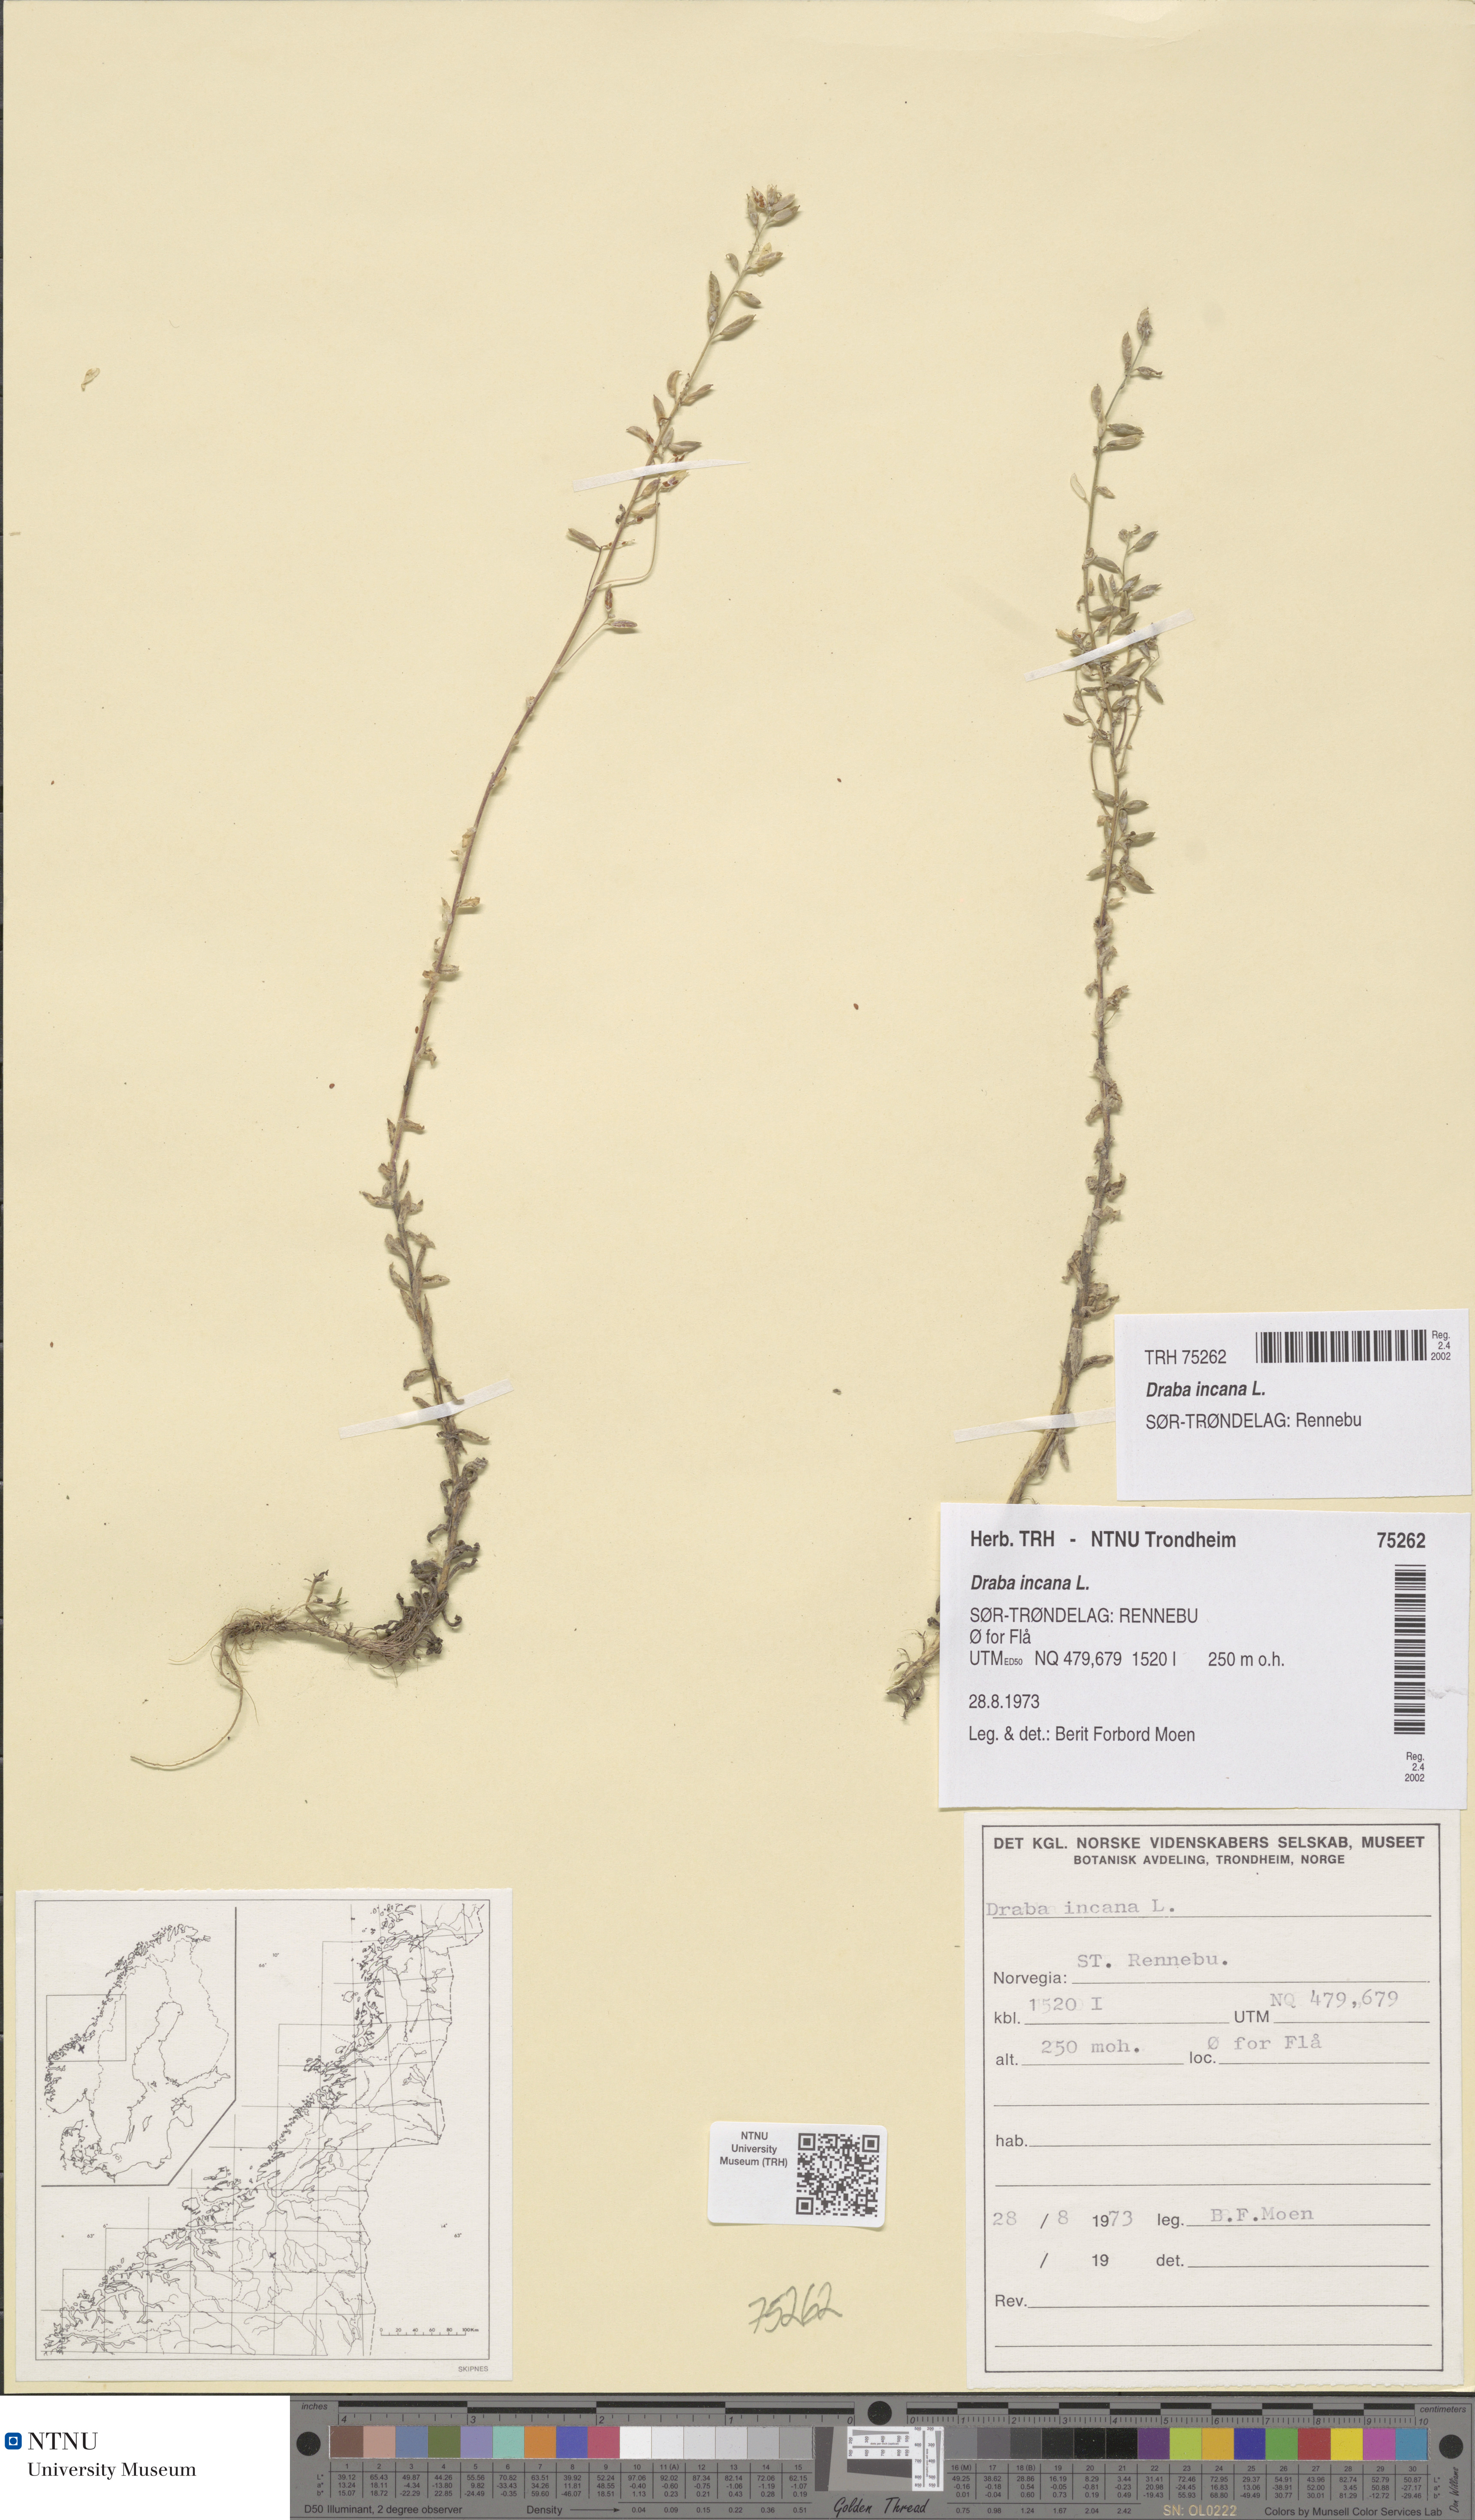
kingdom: Plantae
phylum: Tracheophyta
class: Magnoliopsida
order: Brassicales
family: Brassicaceae
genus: Draba
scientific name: Draba incana
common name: Hoary whitlow-grass
